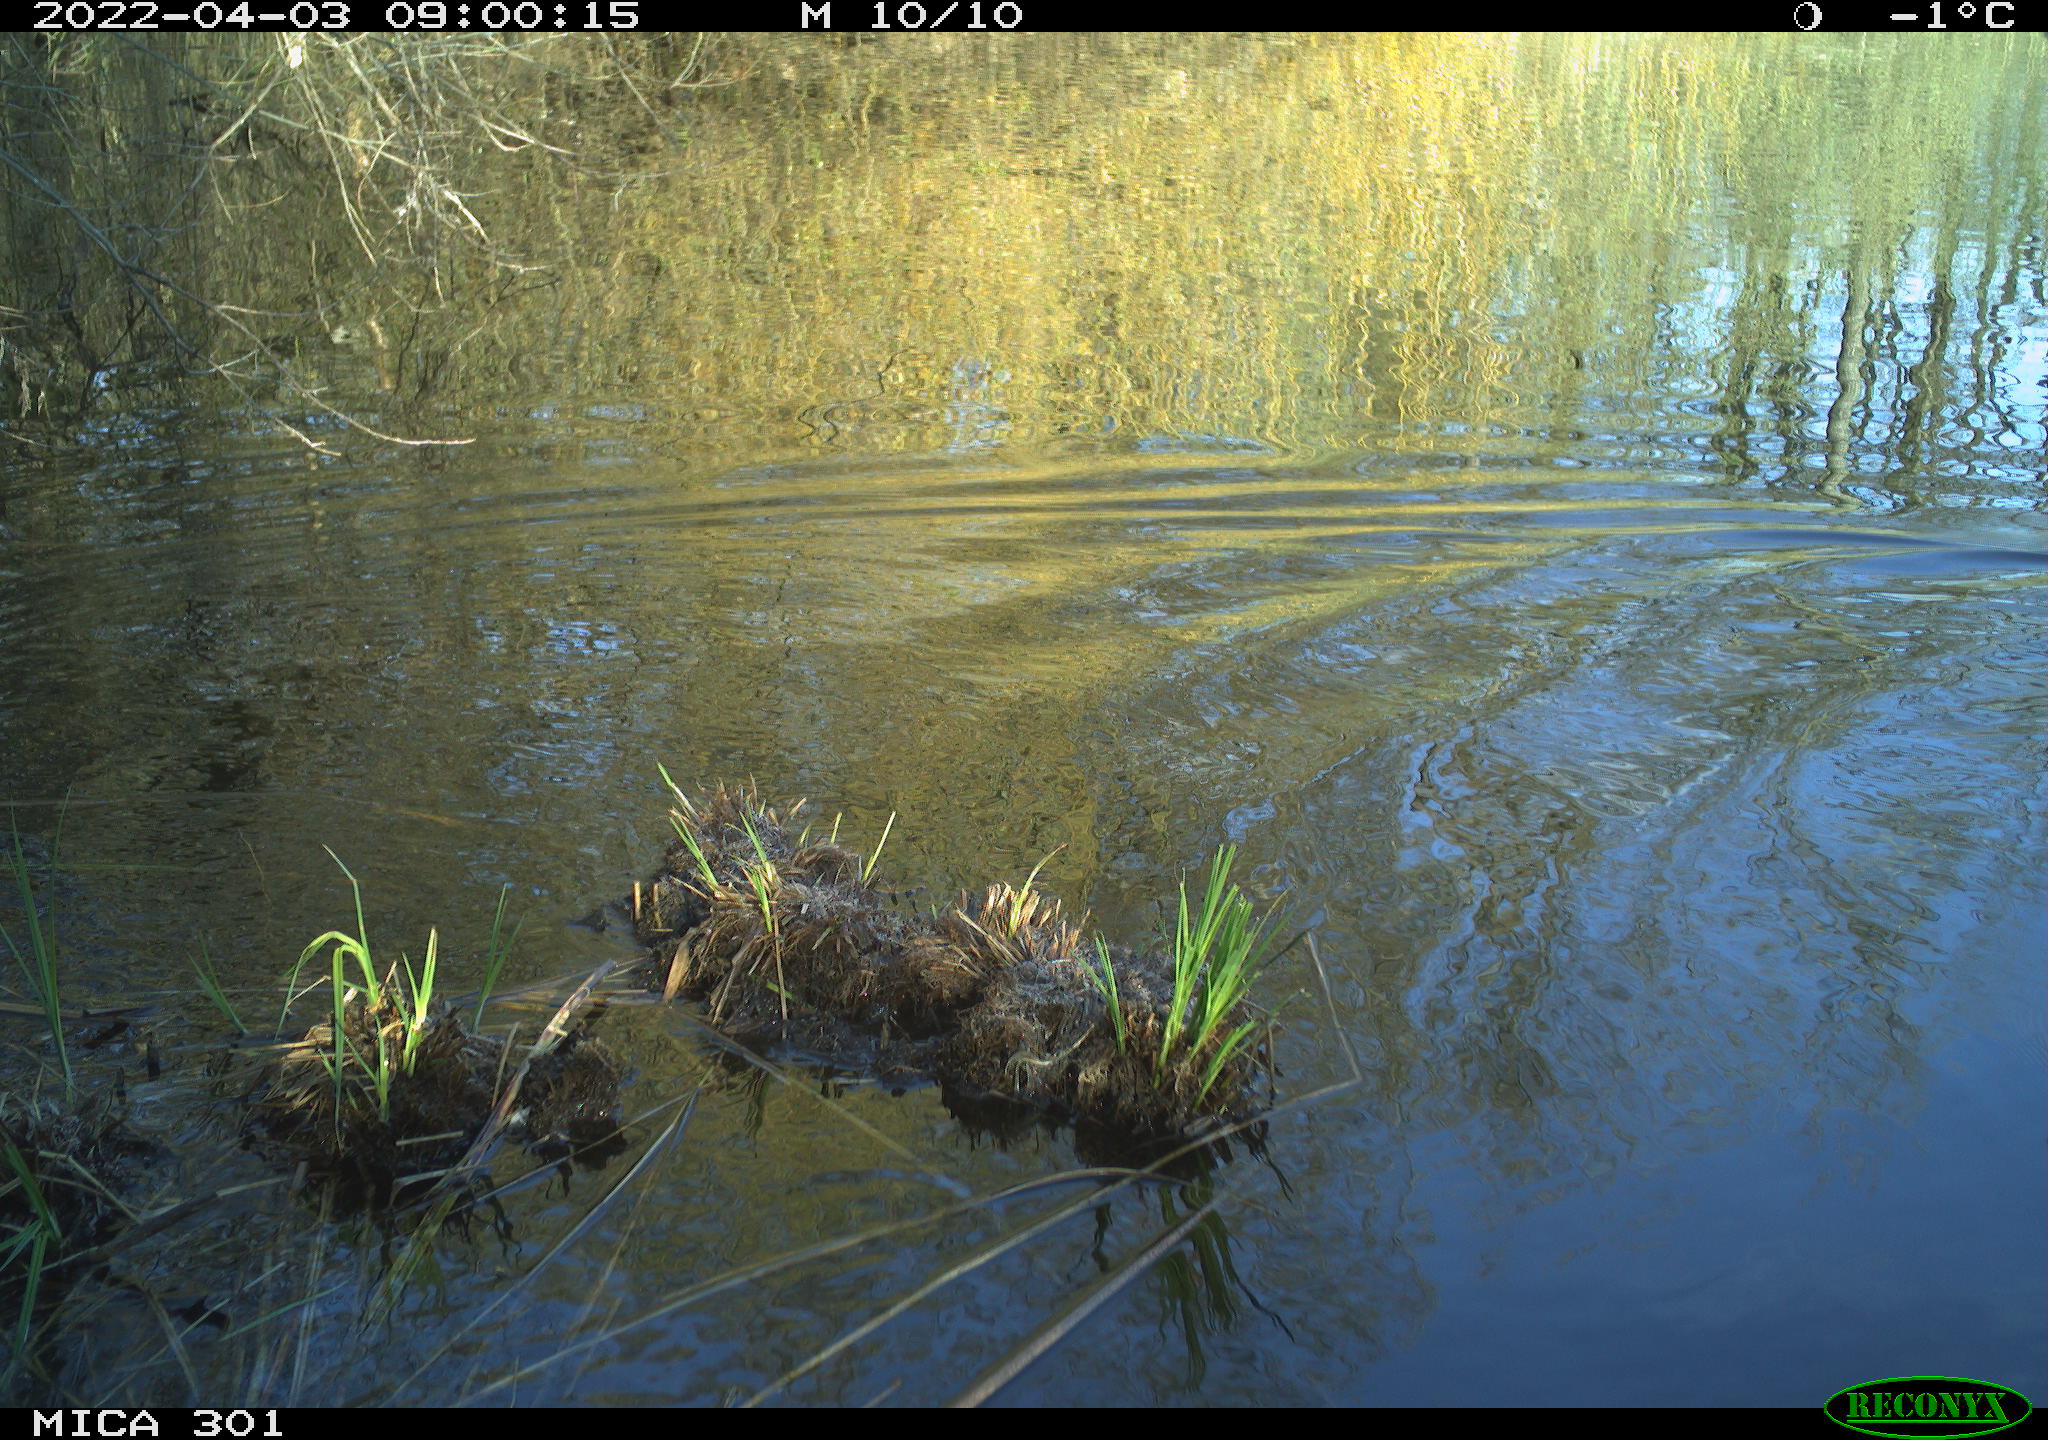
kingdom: Animalia
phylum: Chordata
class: Aves
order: Anseriformes
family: Anatidae
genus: Anas
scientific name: Anas platyrhynchos
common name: Mallard
